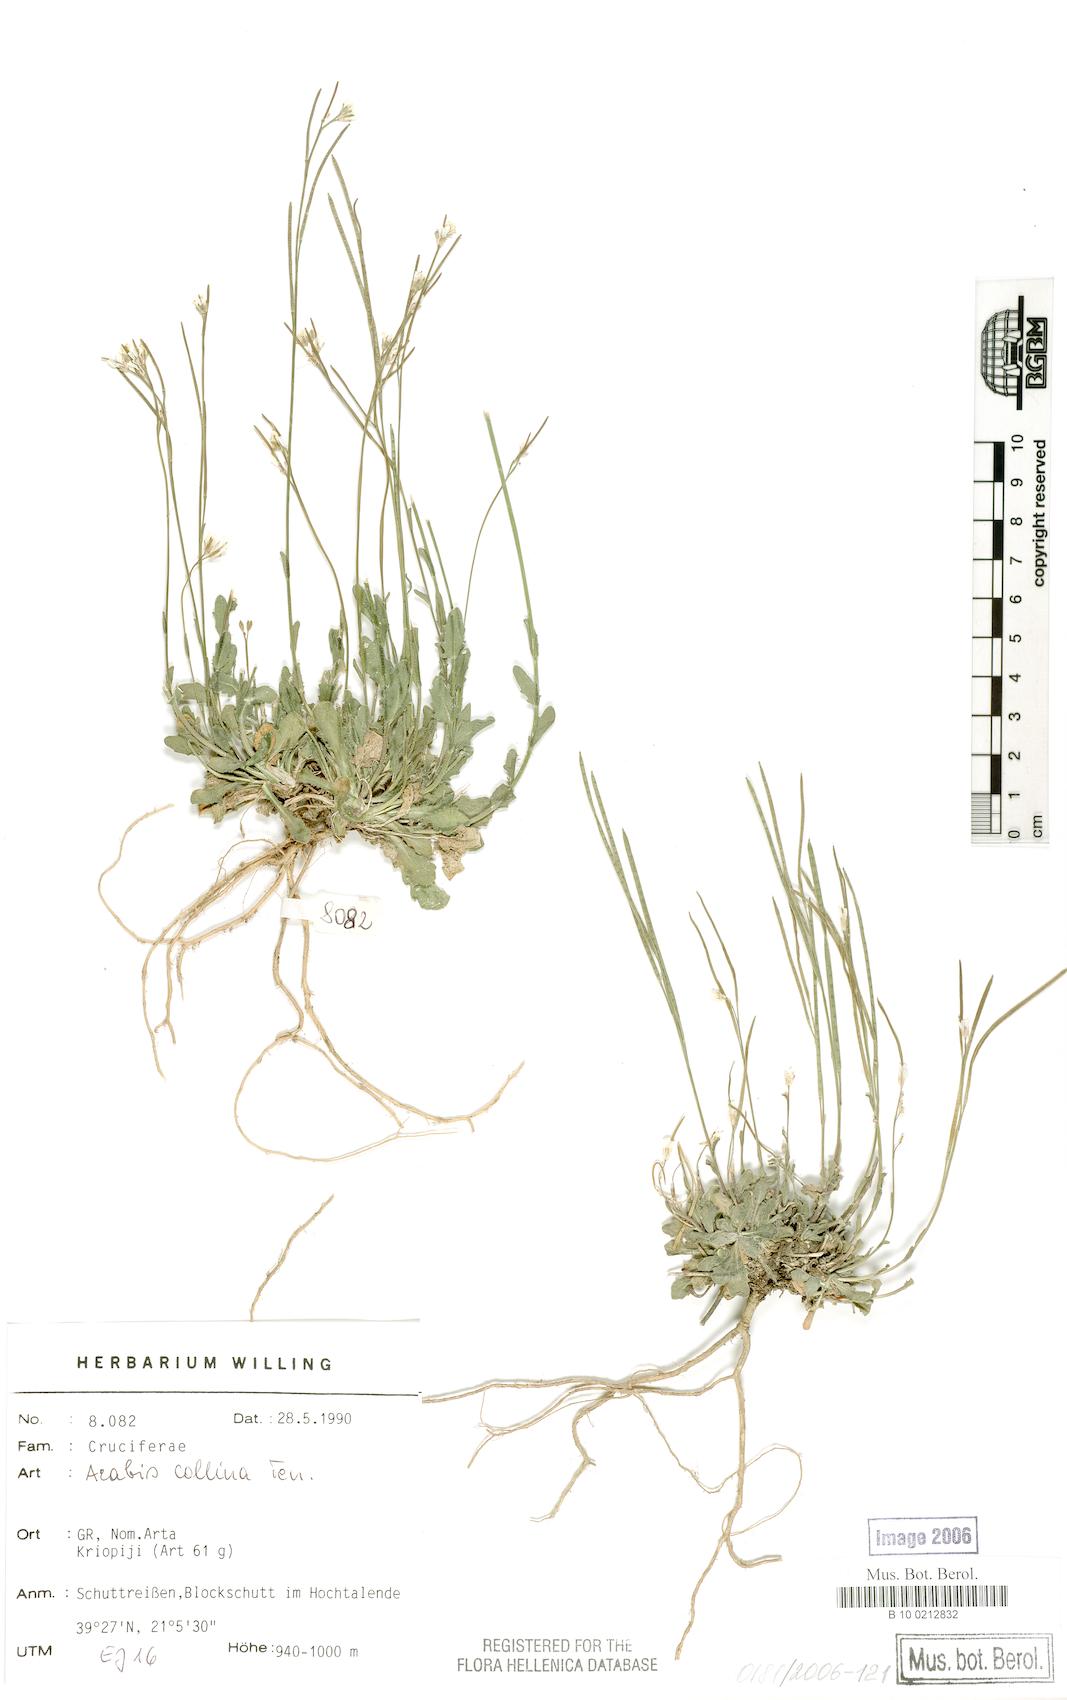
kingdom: Plantae
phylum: Tracheophyta
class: Magnoliopsida
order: Brassicales
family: Brassicaceae
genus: Arabis
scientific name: Arabis collina
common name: Rosy cress
